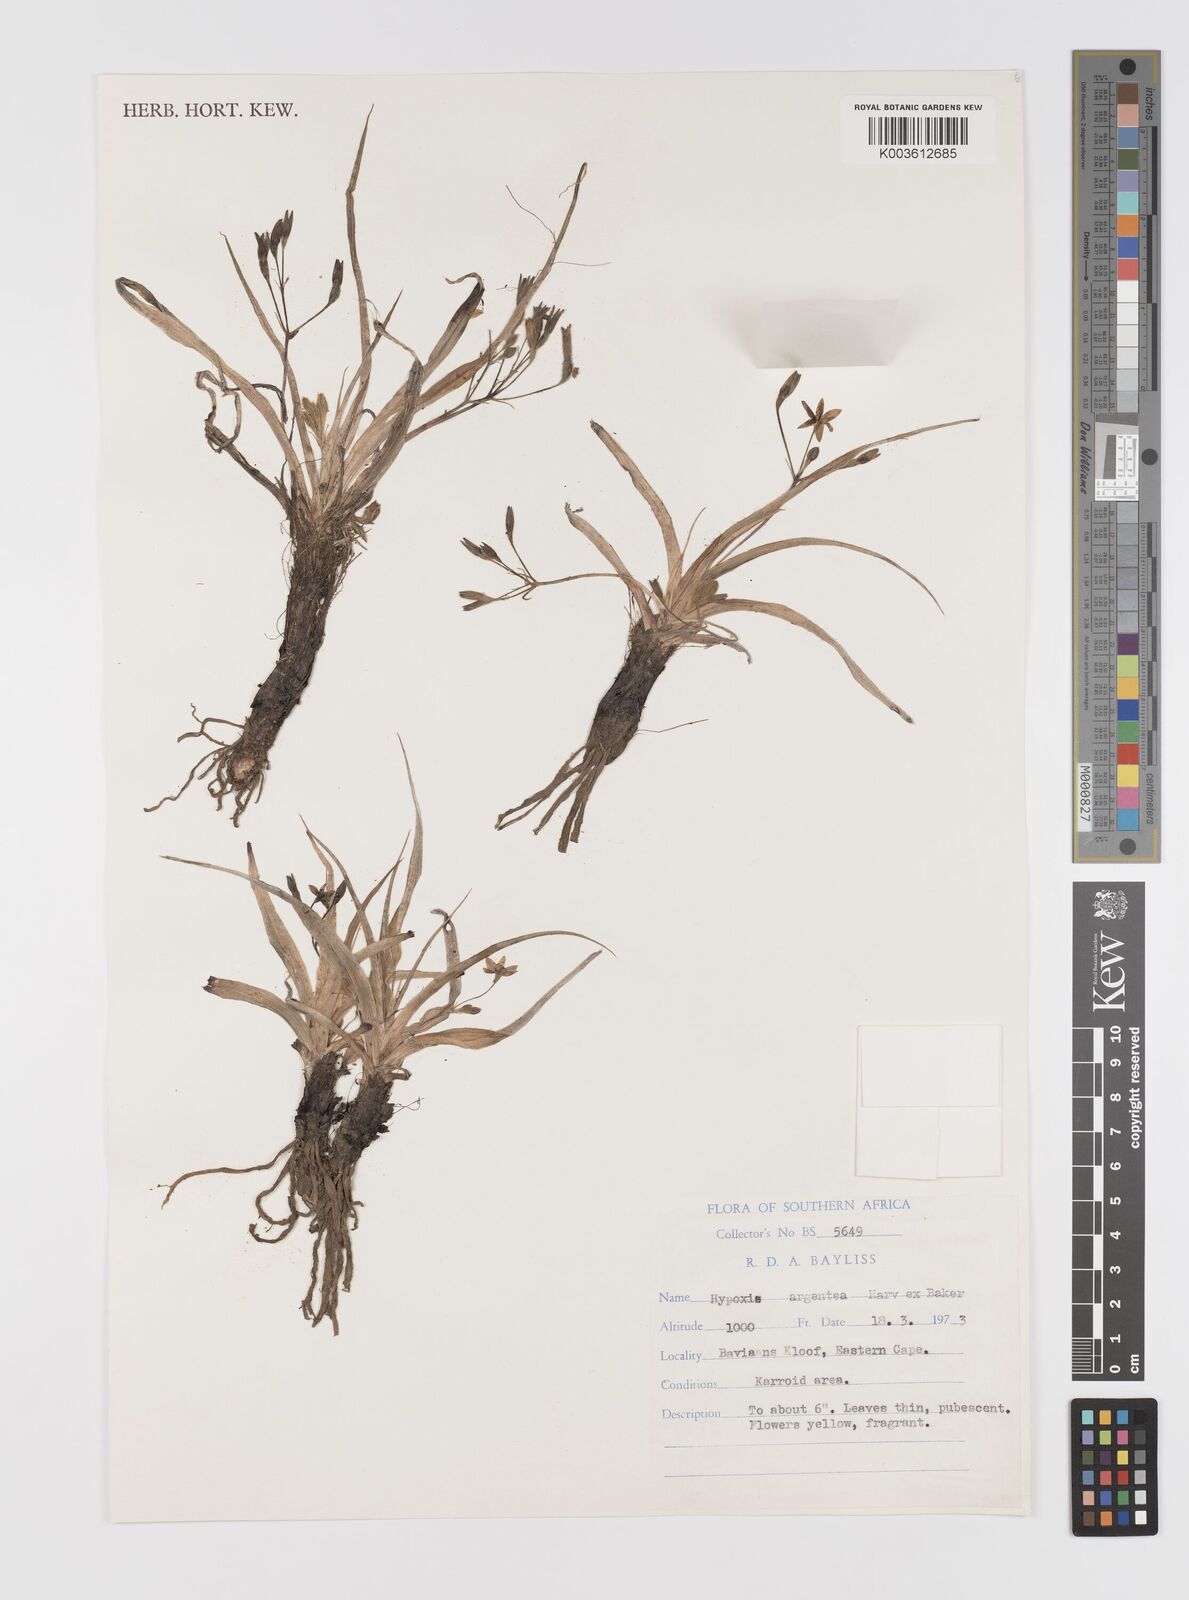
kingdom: Plantae
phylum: Tracheophyta
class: Liliopsida
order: Asparagales
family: Hypoxidaceae
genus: Hypoxis
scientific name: Hypoxis argentea
